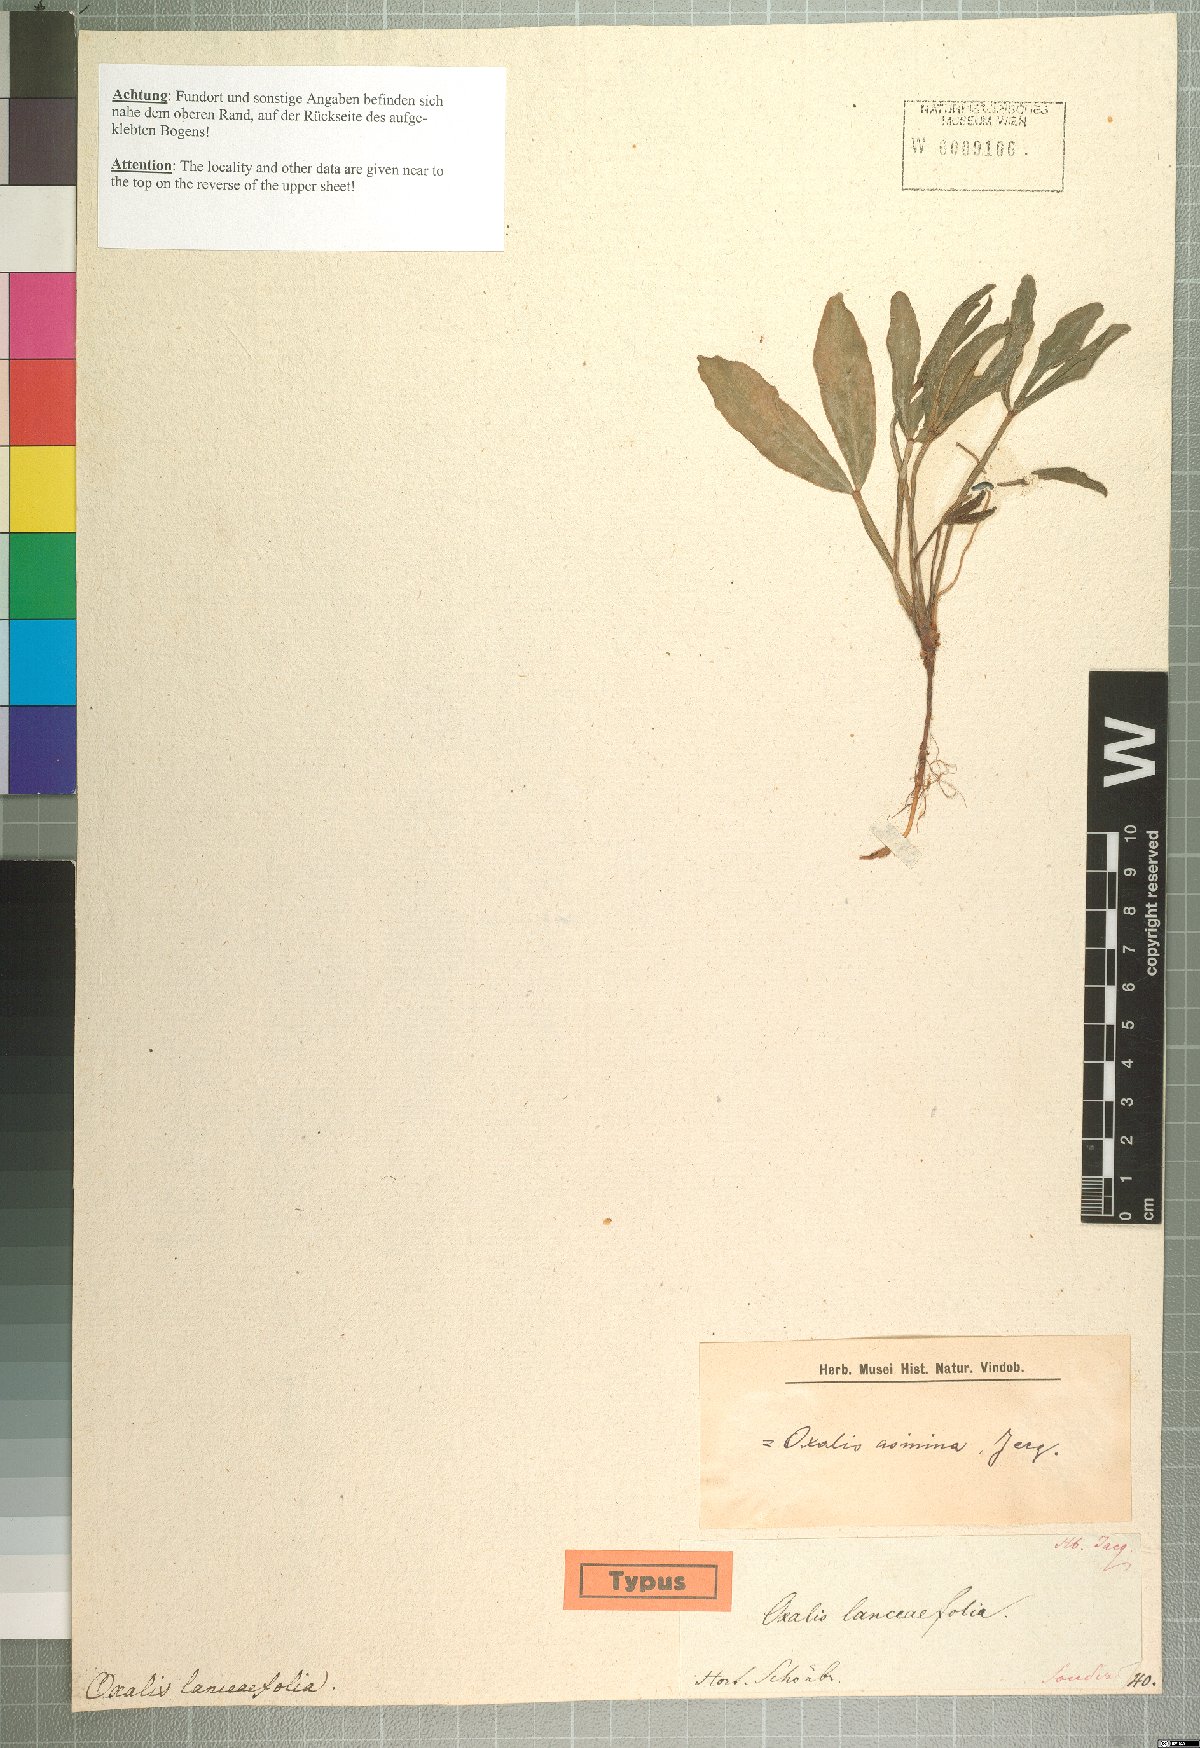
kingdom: Plantae
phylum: Tracheophyta
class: Magnoliopsida
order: Oxalidales
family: Oxalidaceae
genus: Oxalis
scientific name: Oxalis flava
